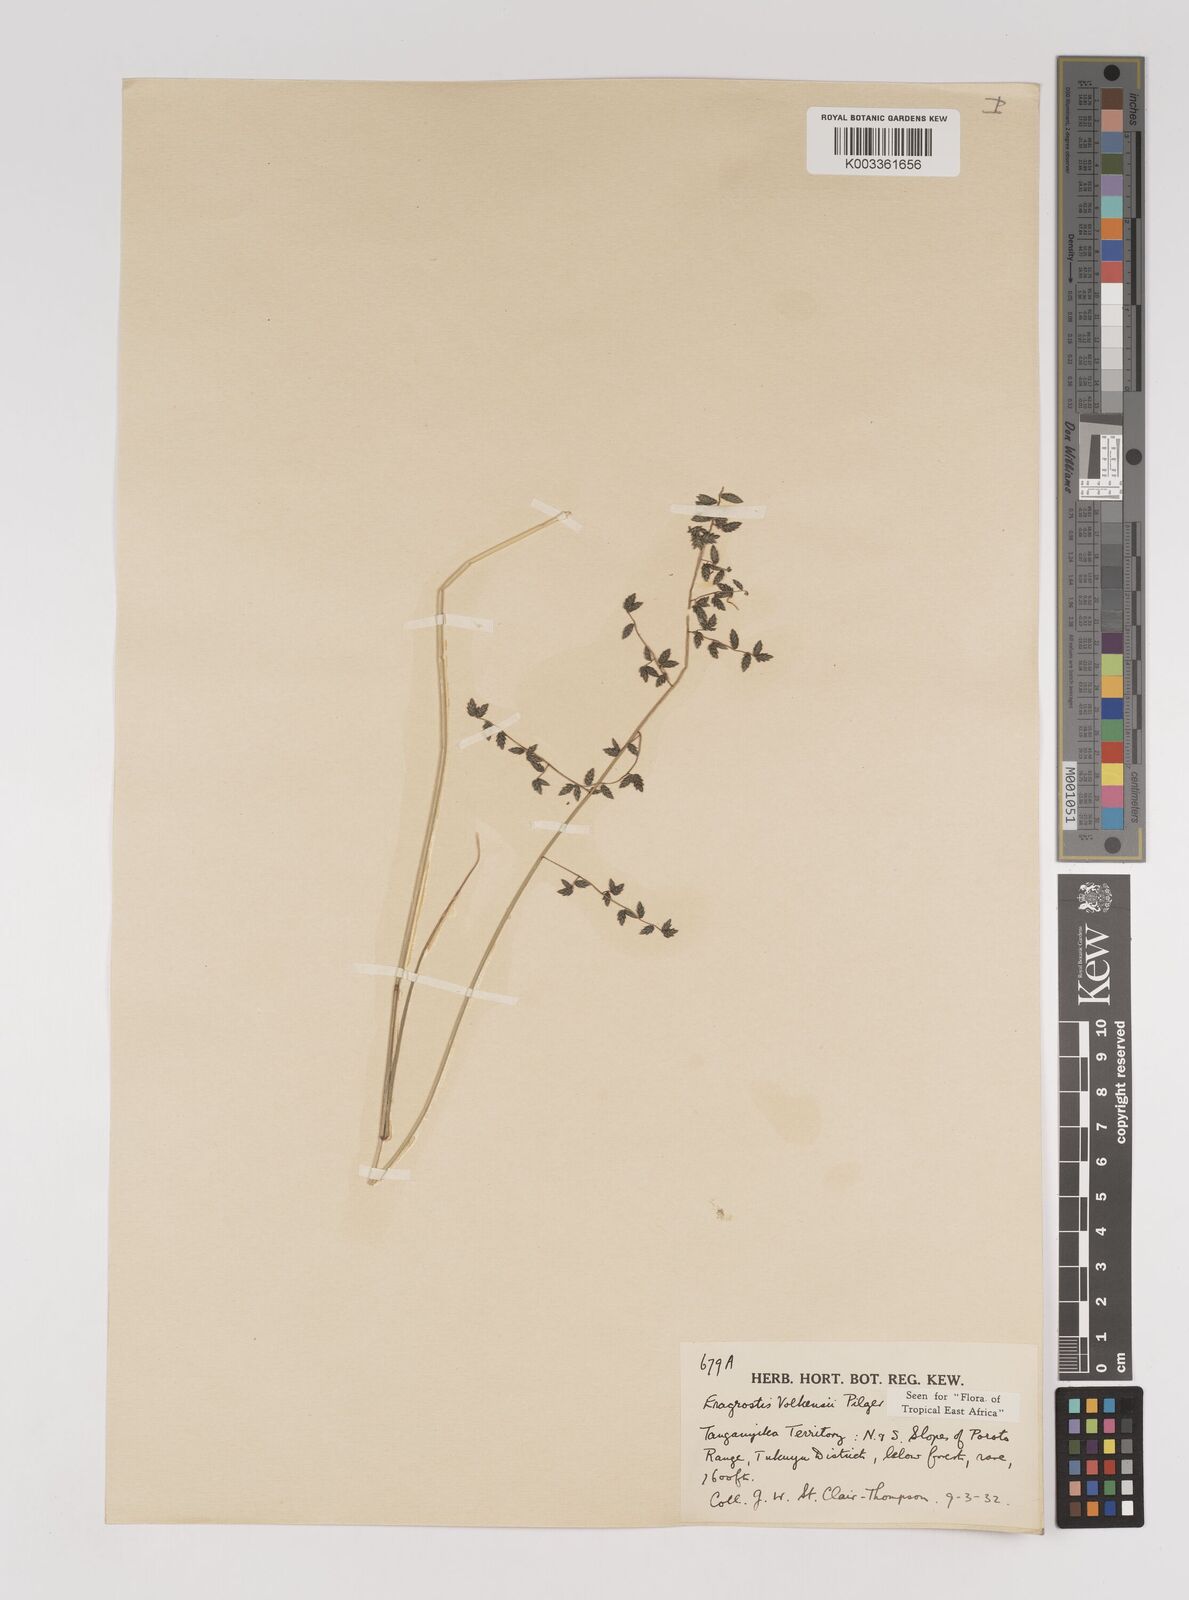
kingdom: Plantae
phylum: Tracheophyta
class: Liliopsida
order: Poales
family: Poaceae
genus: Eragrostis
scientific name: Eragrostis volkensii
